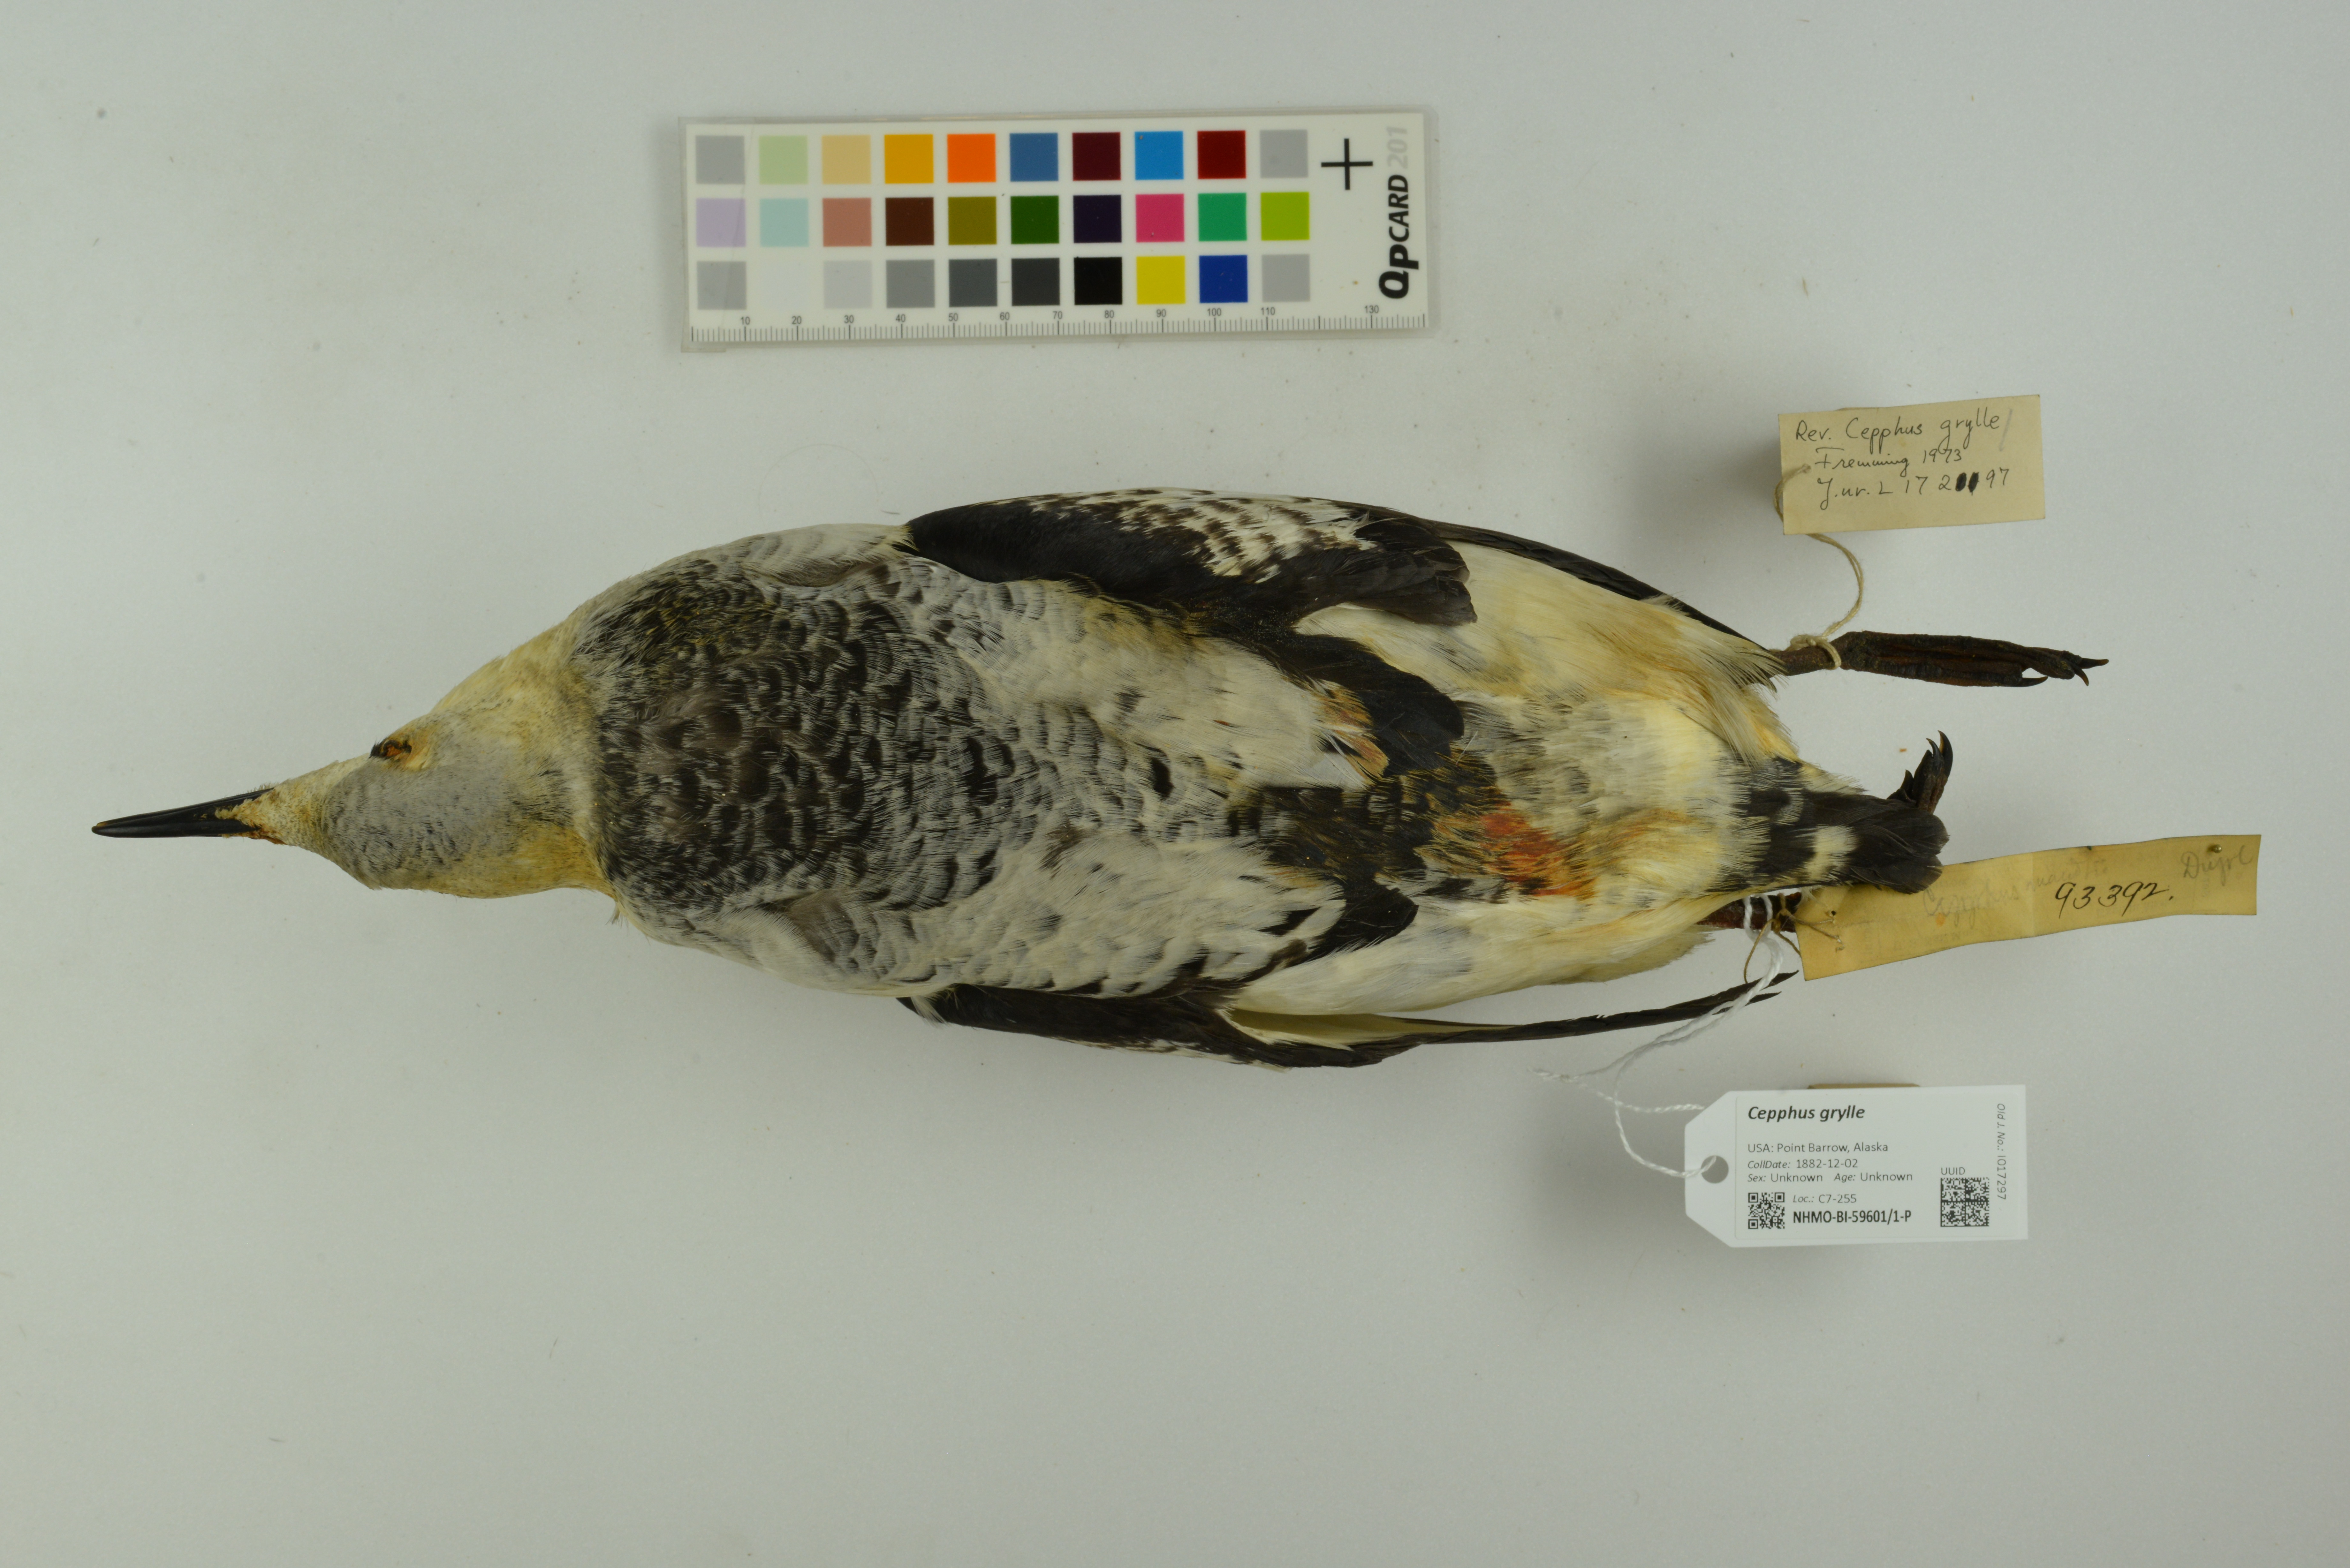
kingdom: Animalia
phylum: Chordata
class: Aves
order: Charadriiformes
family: Alcidae
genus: Cepphus
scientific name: Cepphus grylle
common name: Black guillemot
